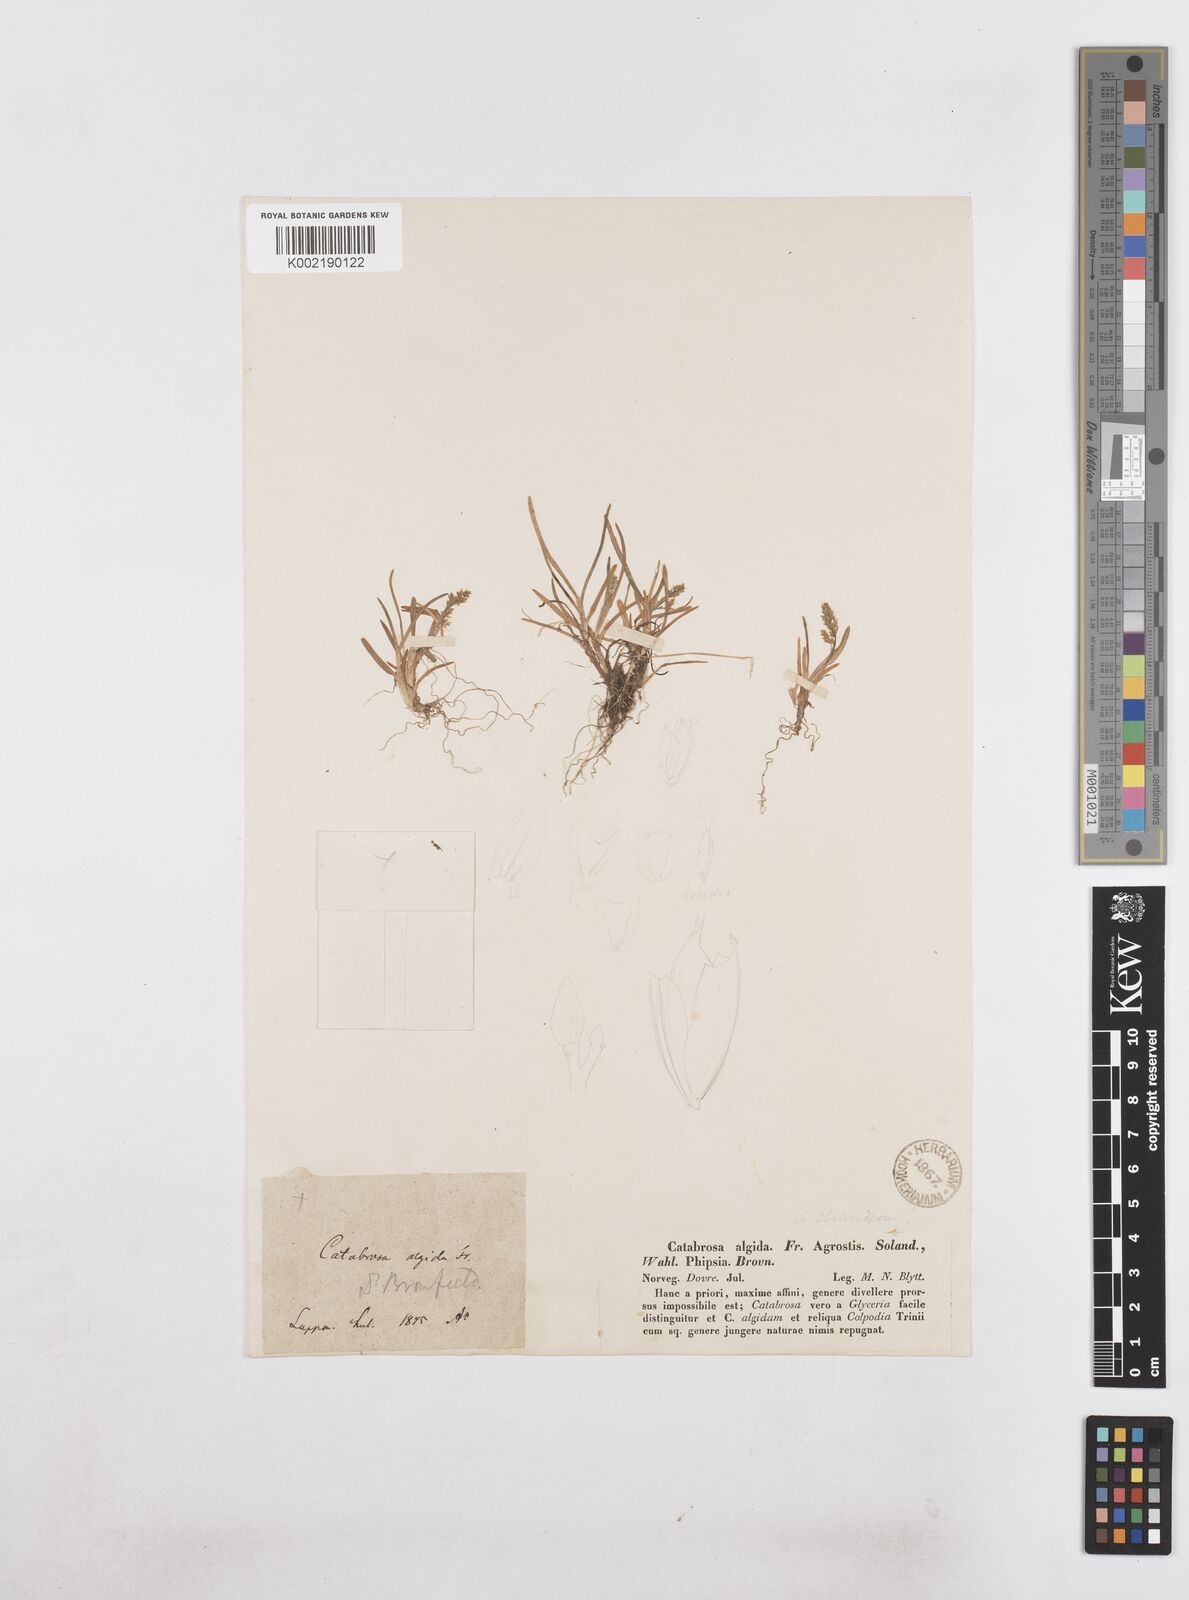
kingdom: Plantae
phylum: Tracheophyta
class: Liliopsida
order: Poales
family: Poaceae
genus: Phippsia
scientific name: Phippsia algida
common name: Ice grass
